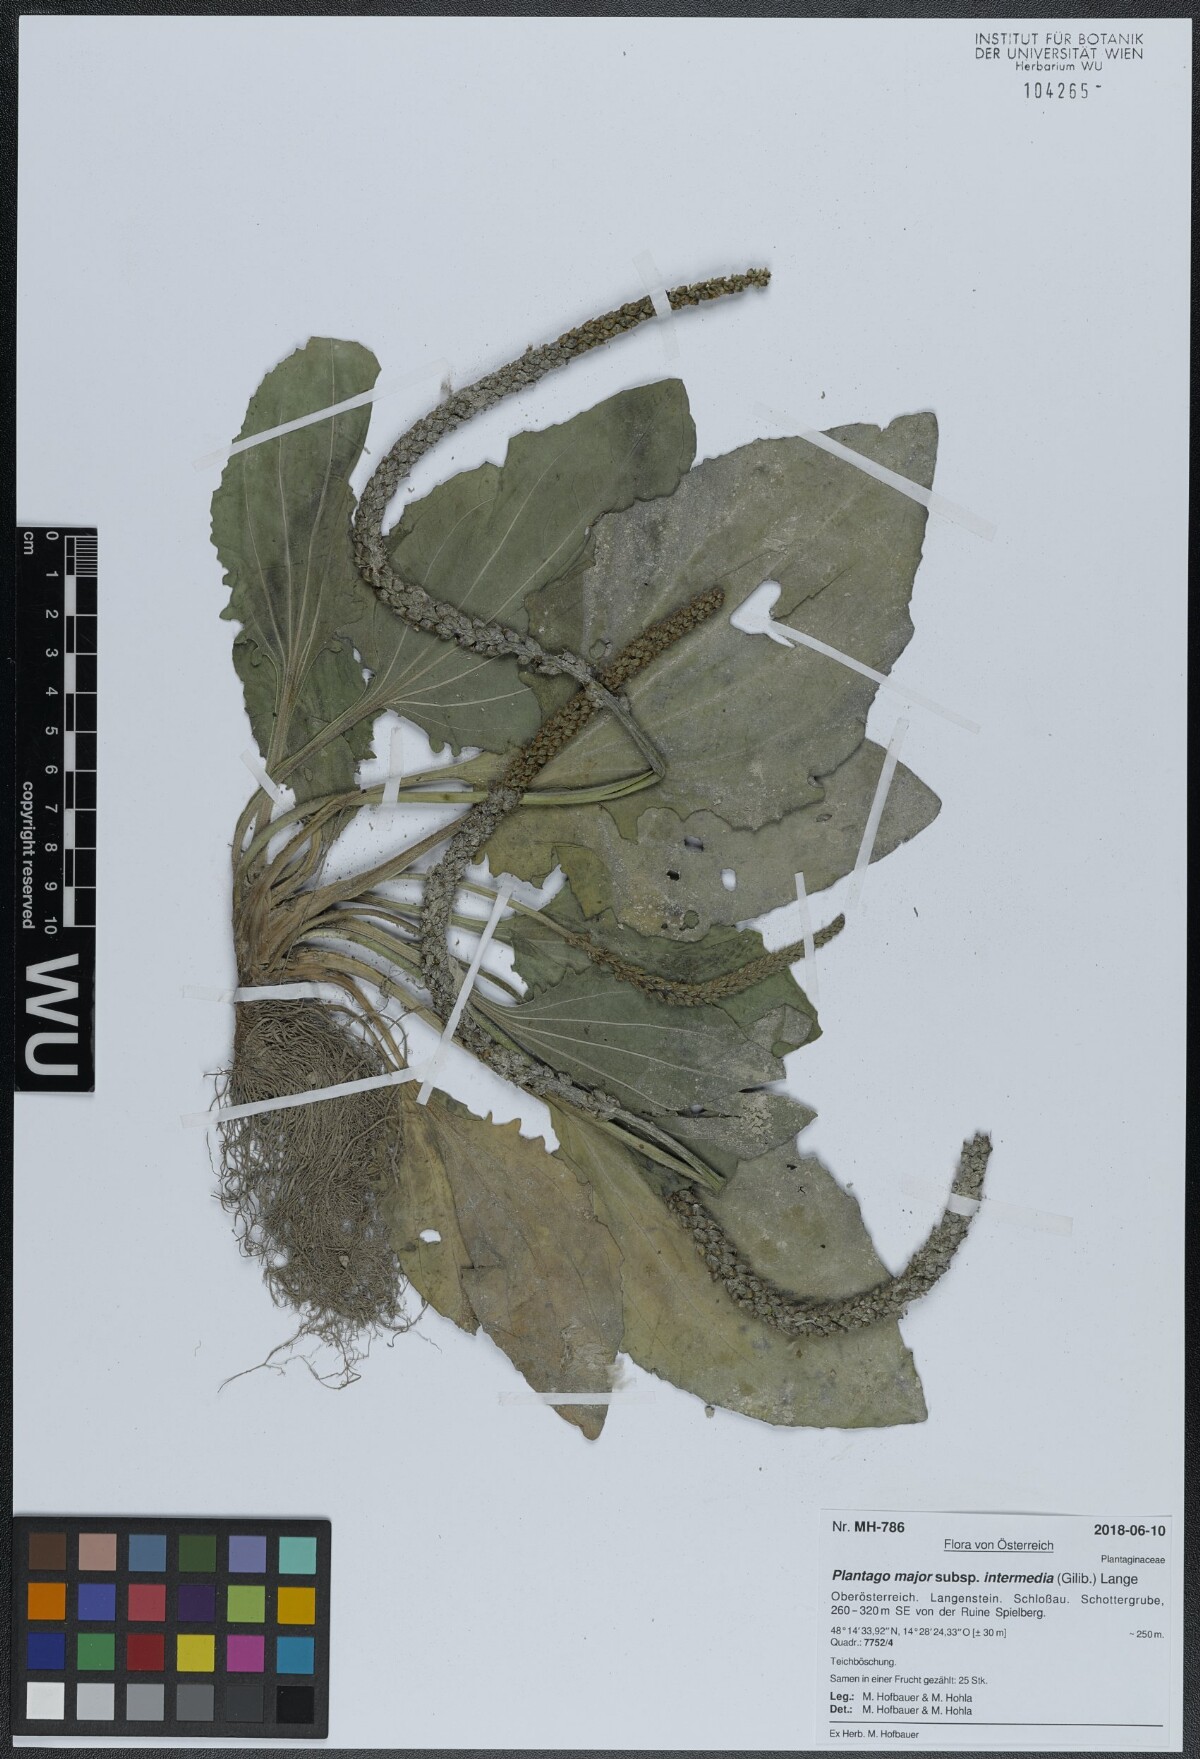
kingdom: Plantae
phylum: Tracheophyta
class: Magnoliopsida
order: Lamiales
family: Plantaginaceae
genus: Plantago
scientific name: Plantago uliginosa
